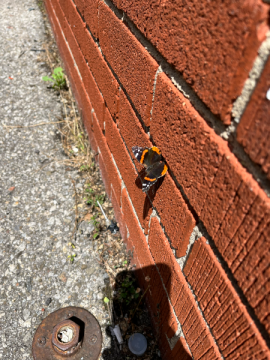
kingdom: Animalia
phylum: Arthropoda
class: Insecta
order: Lepidoptera
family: Nymphalidae
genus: Vanessa
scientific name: Vanessa atalanta
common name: Red Admiral
